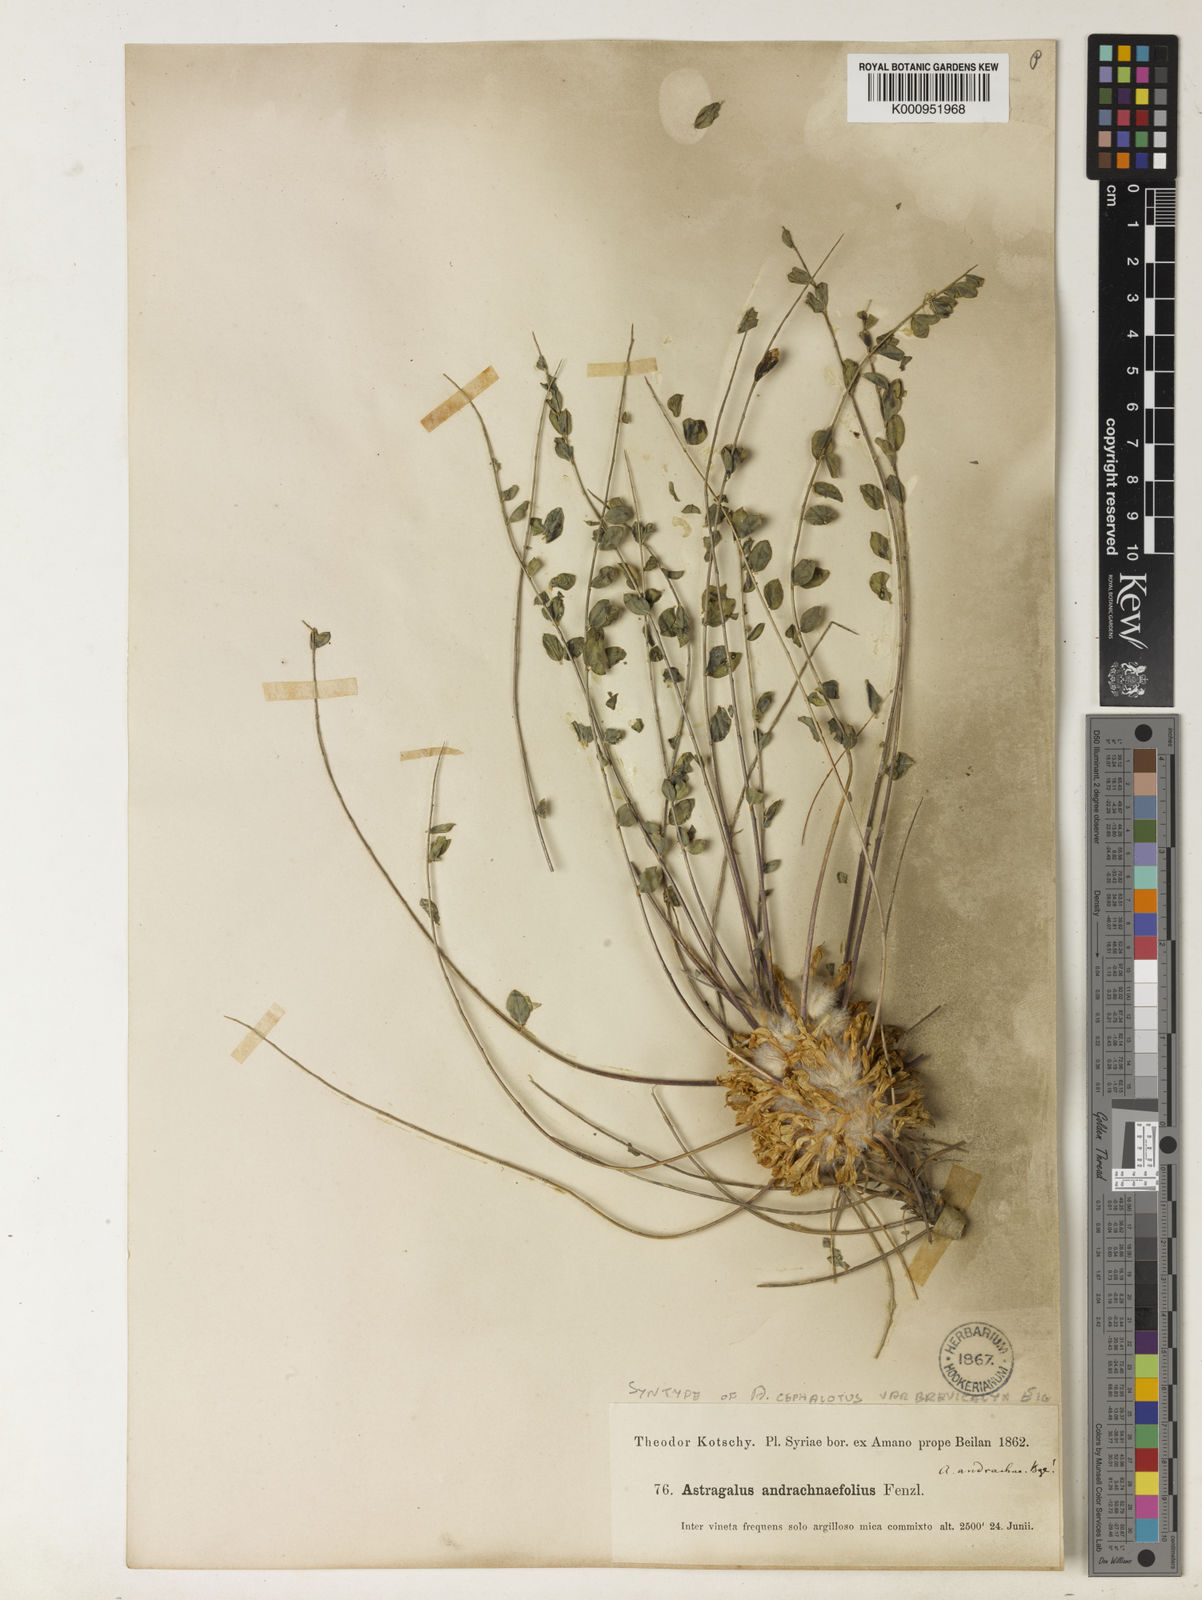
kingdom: Plantae
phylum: Tracheophyta
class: Magnoliopsida
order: Fabales
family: Fabaceae
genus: Astragalus
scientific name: Astragalus cephalotes
